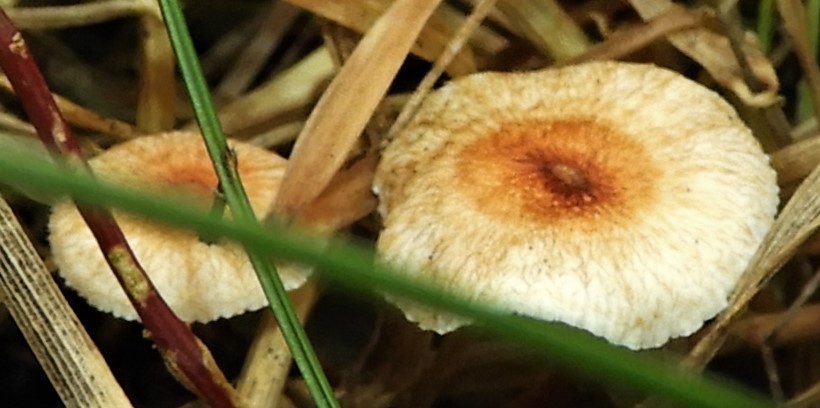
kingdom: Fungi
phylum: Basidiomycota
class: Agaricomycetes
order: Agaricales
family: Marasmiaceae
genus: Crinipellis
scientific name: Crinipellis scabella
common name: børstefod
